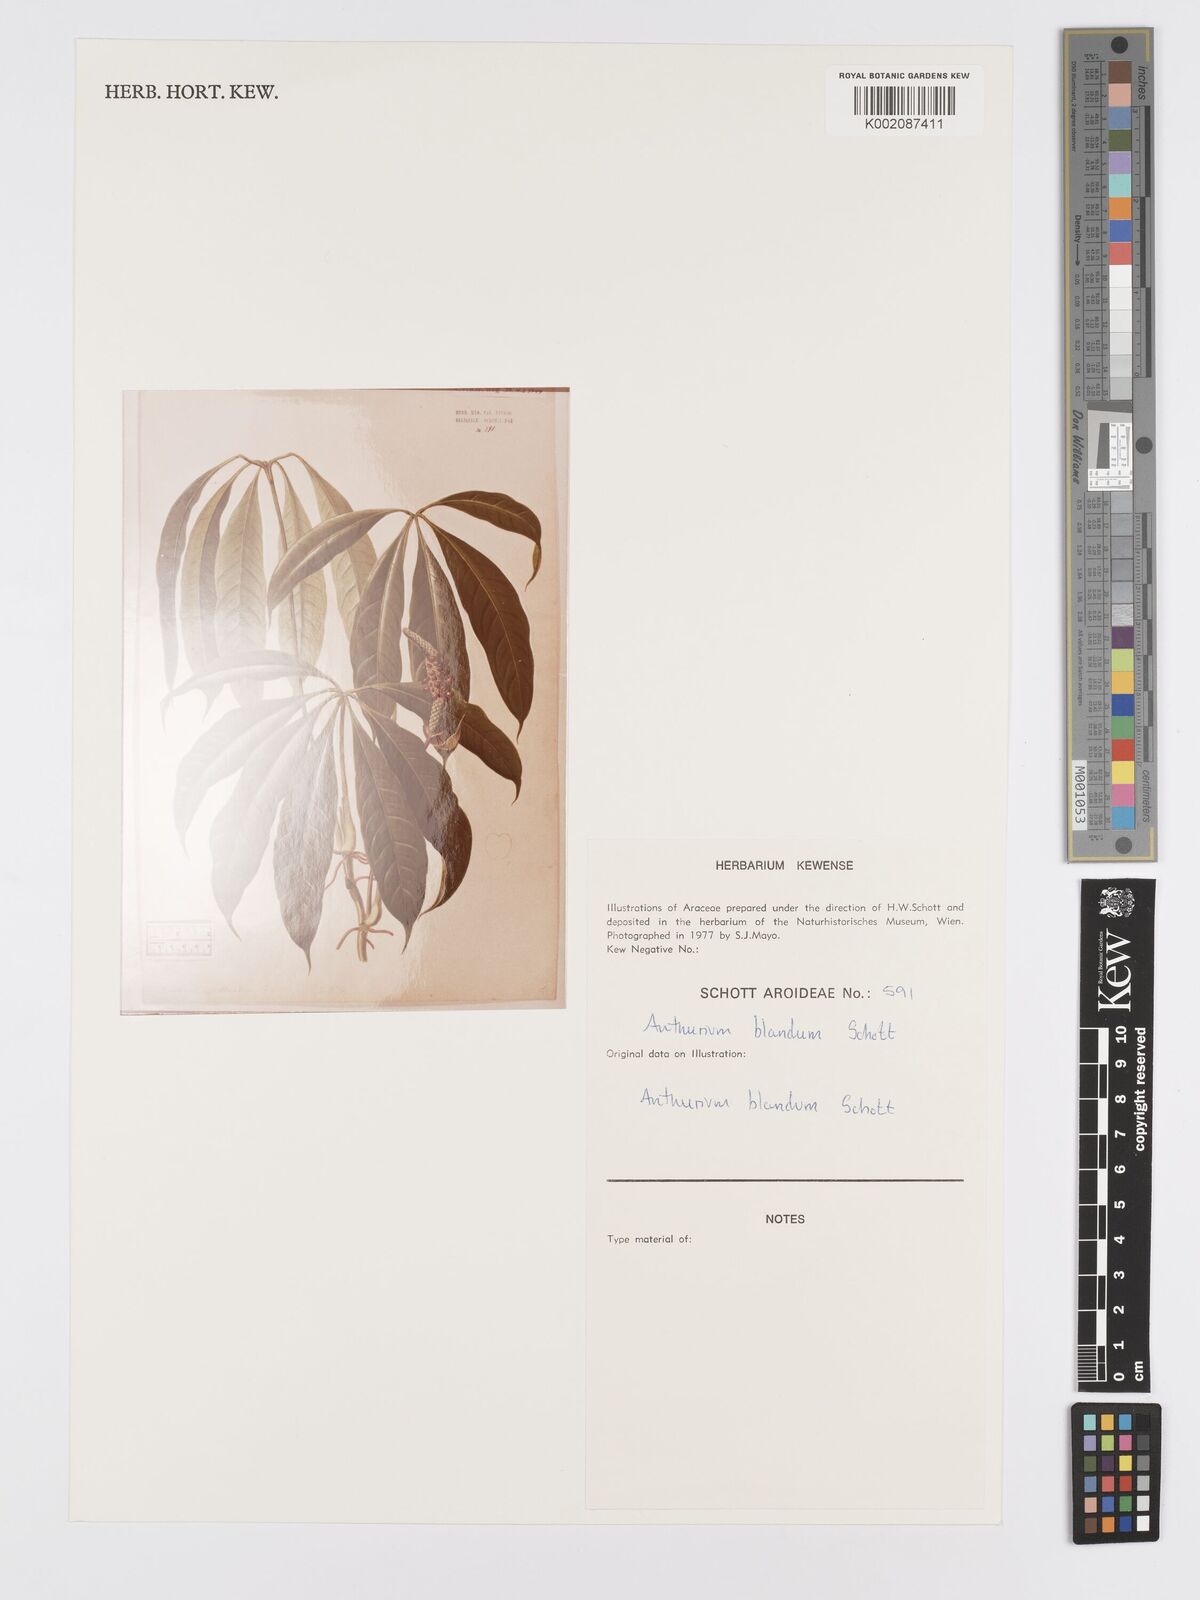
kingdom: Plantae
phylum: Tracheophyta
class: Liliopsida
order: Alismatales
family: Araceae
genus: Anthurium
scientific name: Anthurium
